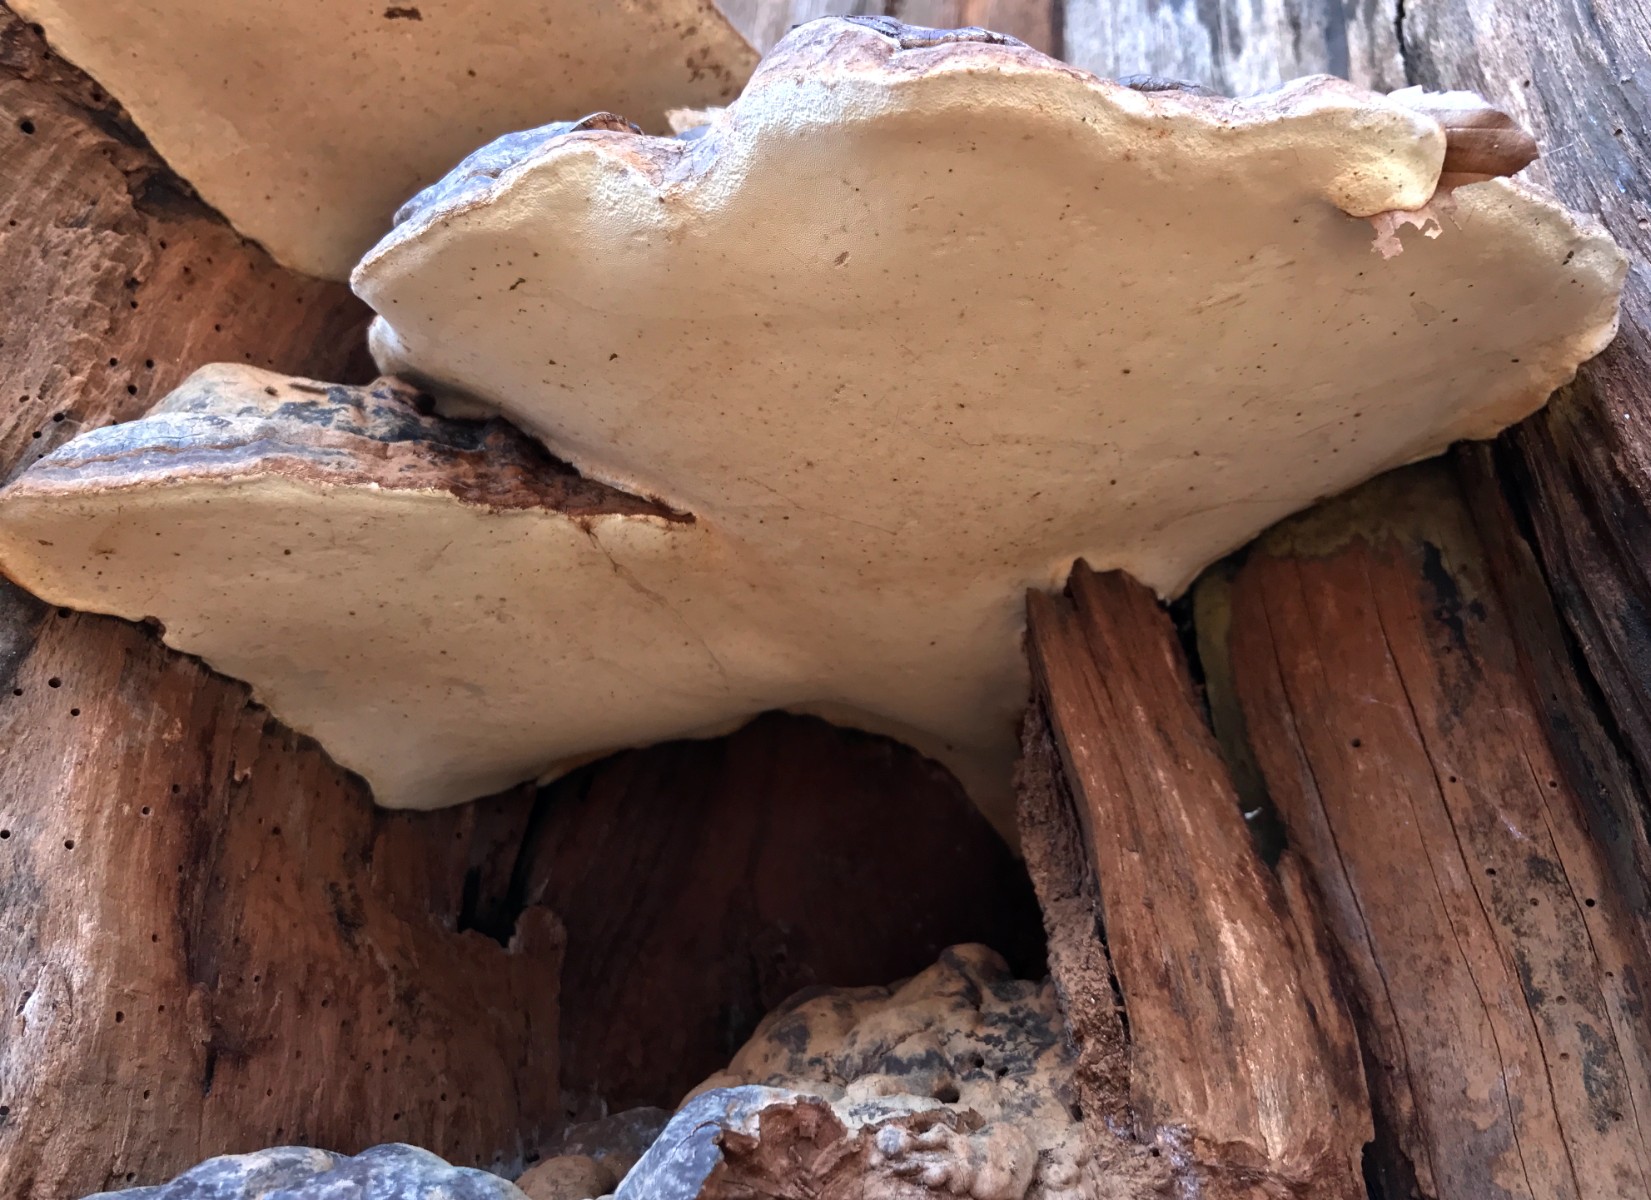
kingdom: Fungi
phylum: Basidiomycota
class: Agaricomycetes
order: Polyporales
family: Polyporaceae
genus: Ganoderma
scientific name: Ganoderma pfeifferi
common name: kobberrød lakporesvamp
